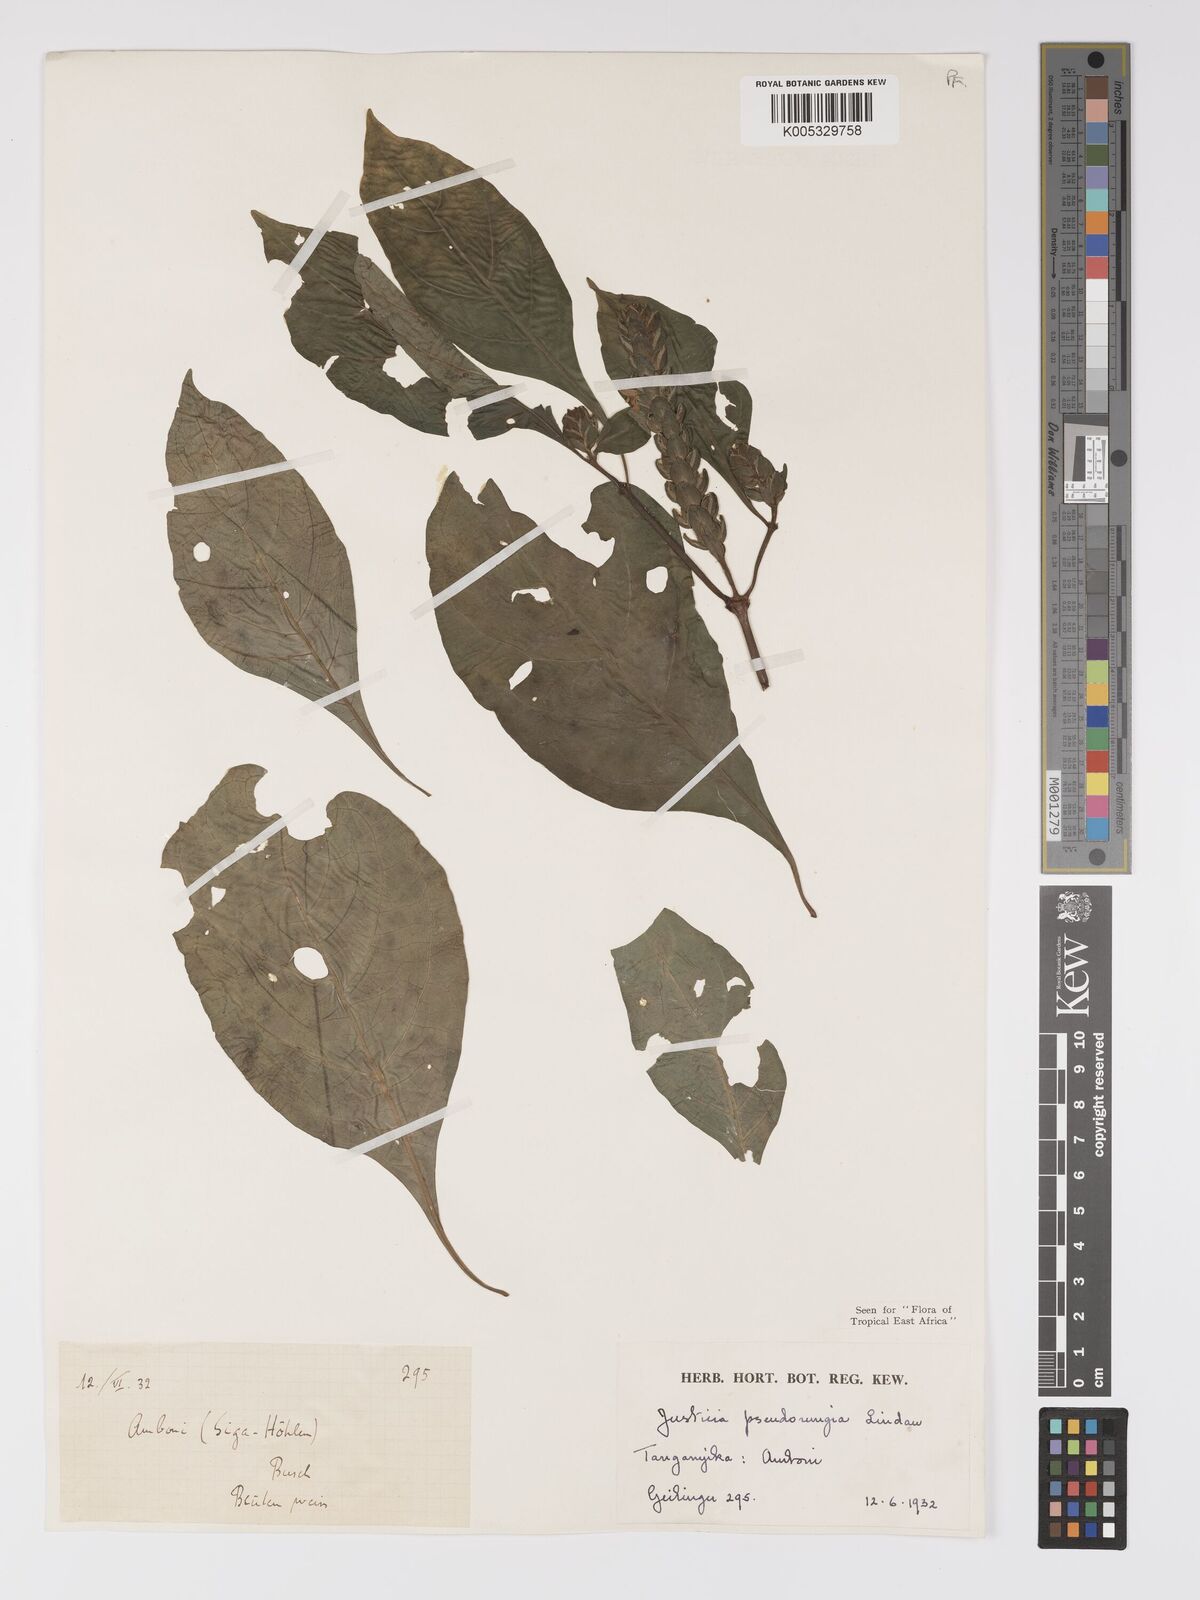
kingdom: Plantae
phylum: Tracheophyta
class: Magnoliopsida
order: Lamiales
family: Acanthaceae
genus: Justicia
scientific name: Justicia pseudorungia
